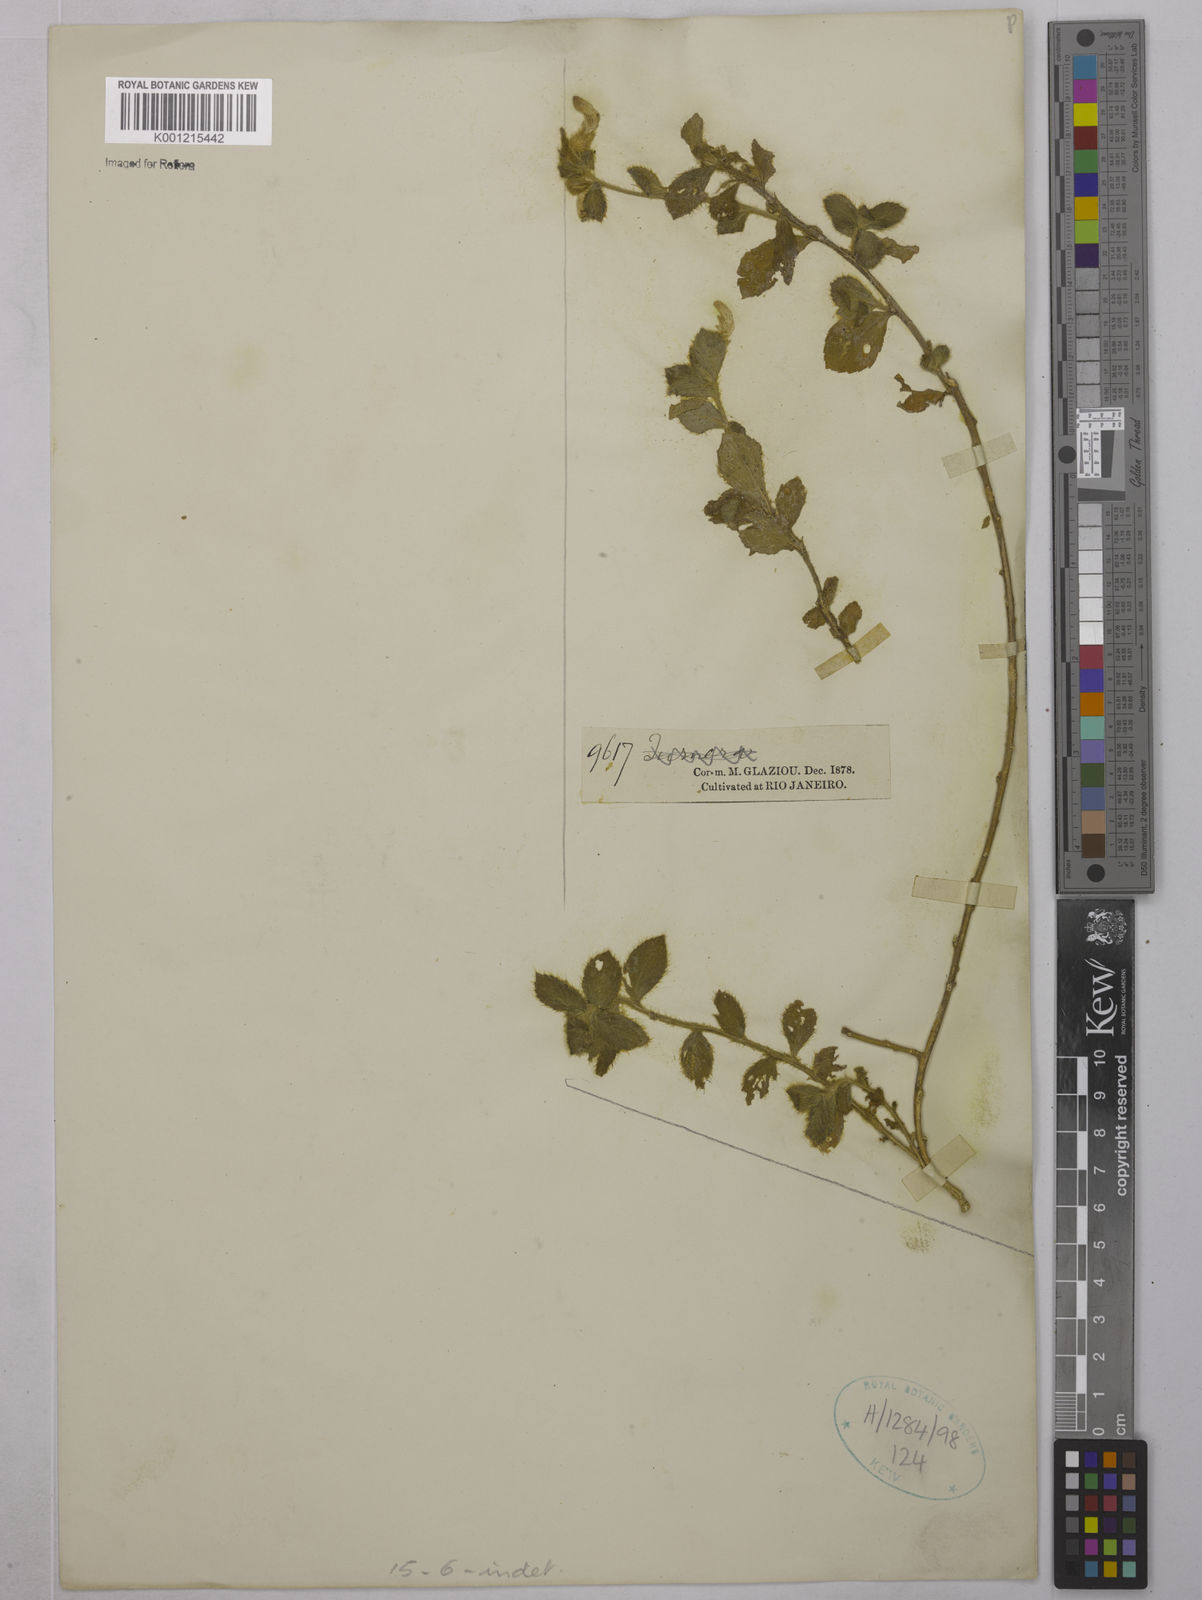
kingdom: Plantae
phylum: Tracheophyta
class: Magnoliopsida
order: Malpighiales
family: Violaceae
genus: Hybanthus
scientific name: Hybanthus
